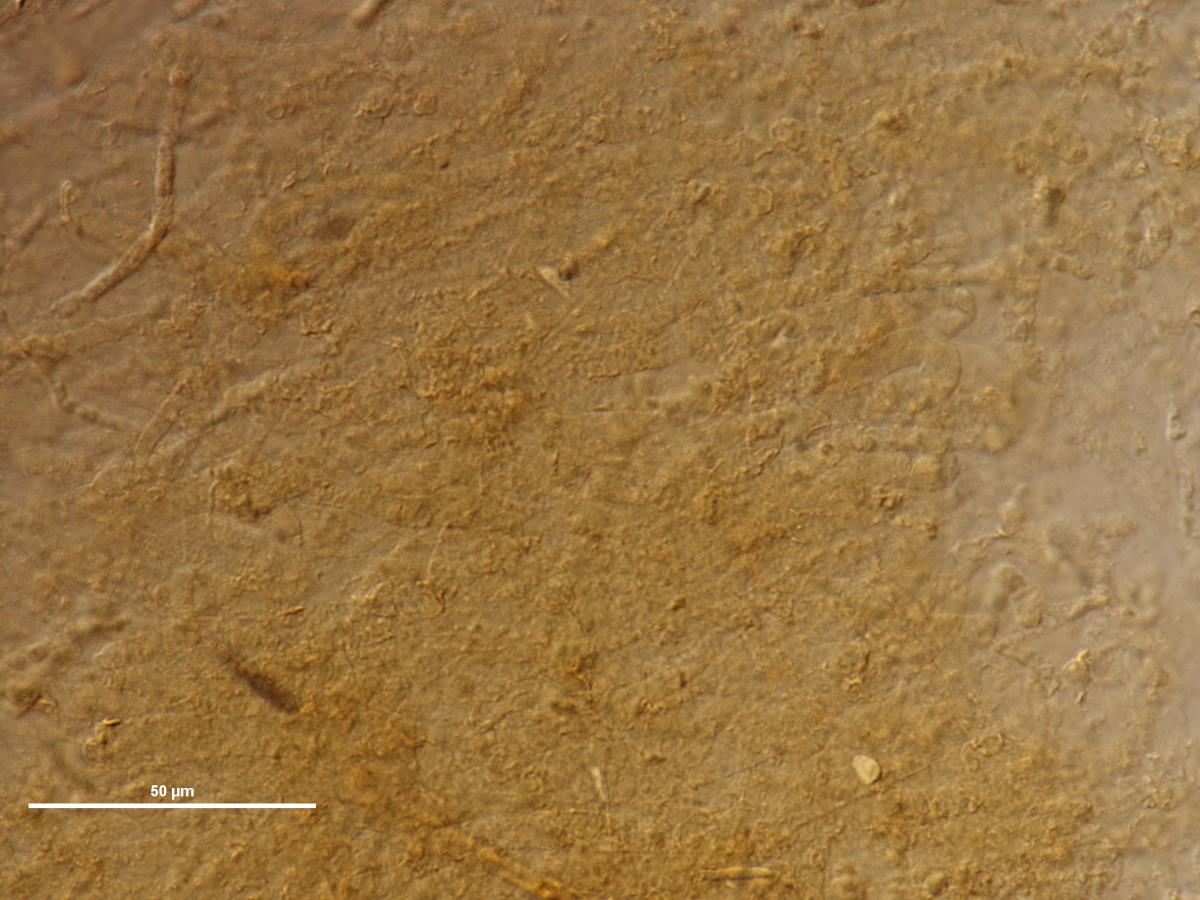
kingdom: Fungi
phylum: Basidiomycota
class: Agaricomycetes
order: Agaricales
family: Strophariaceae
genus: Protostropharia
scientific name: Protostropharia
